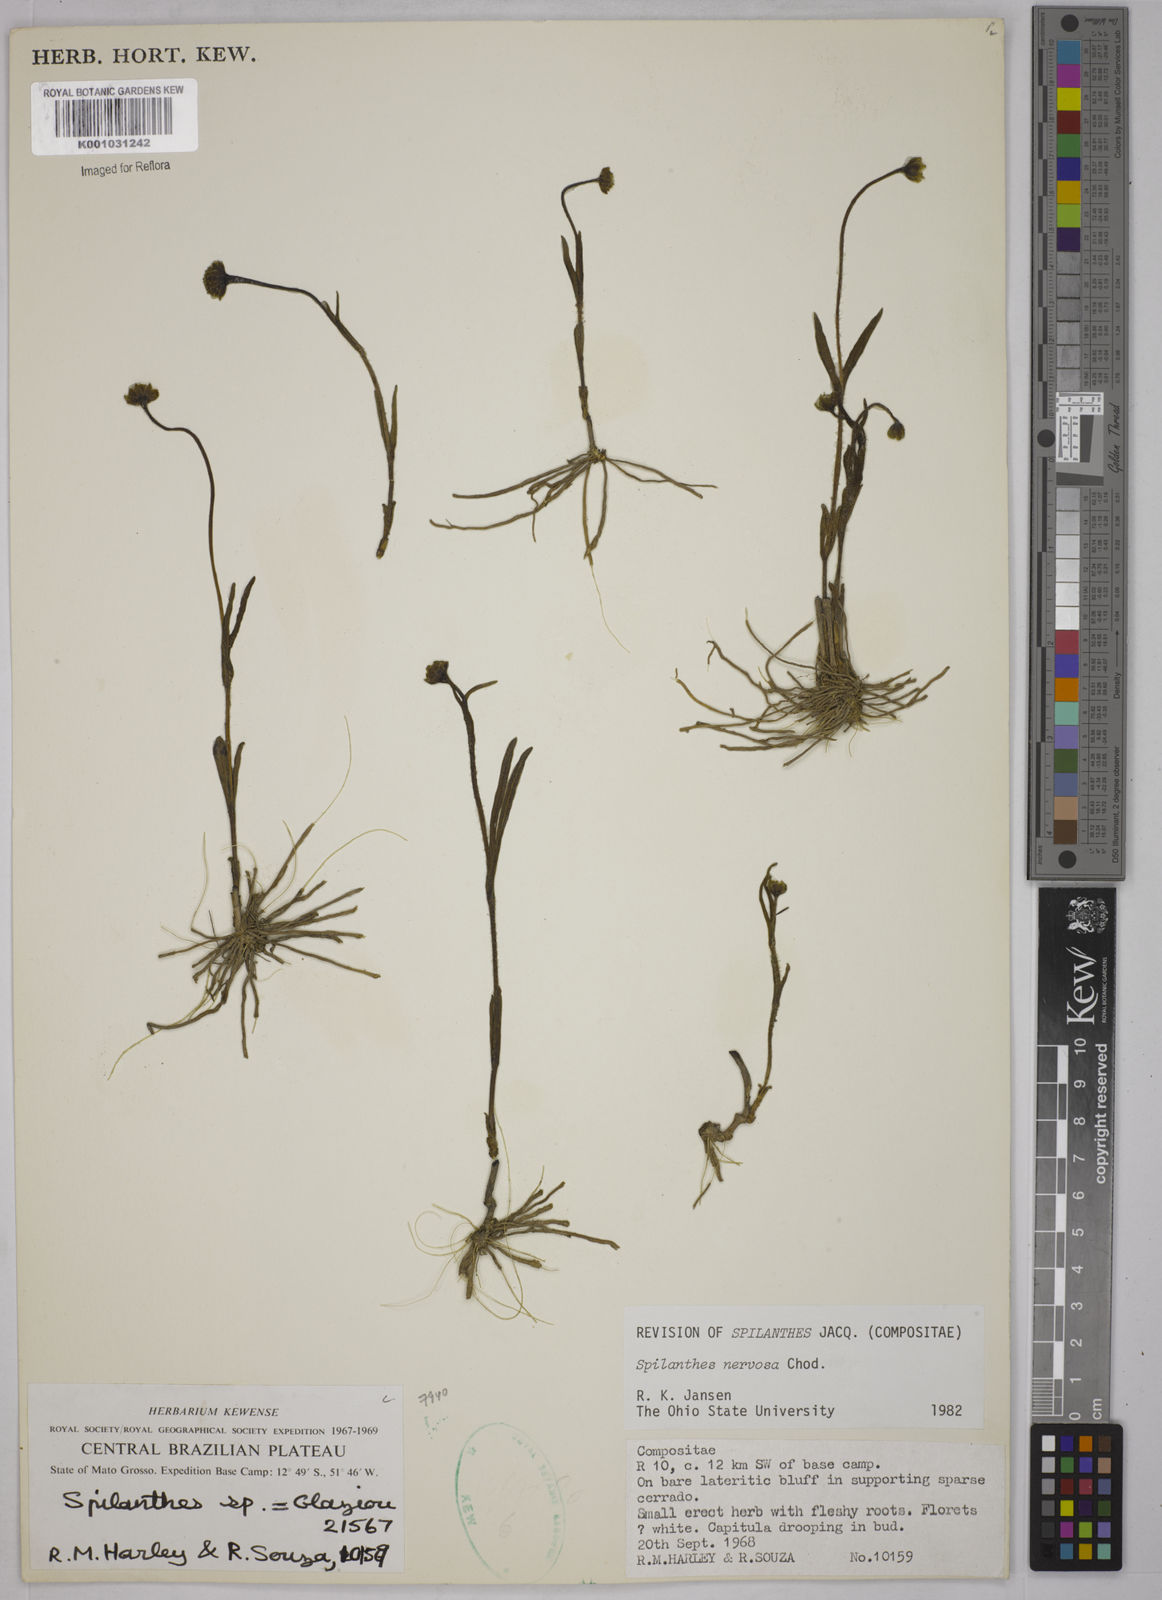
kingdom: Plantae
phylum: Tracheophyta
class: Magnoliopsida
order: Asterales
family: Asteraceae
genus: Spilanthes
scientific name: Spilanthes nervosa
